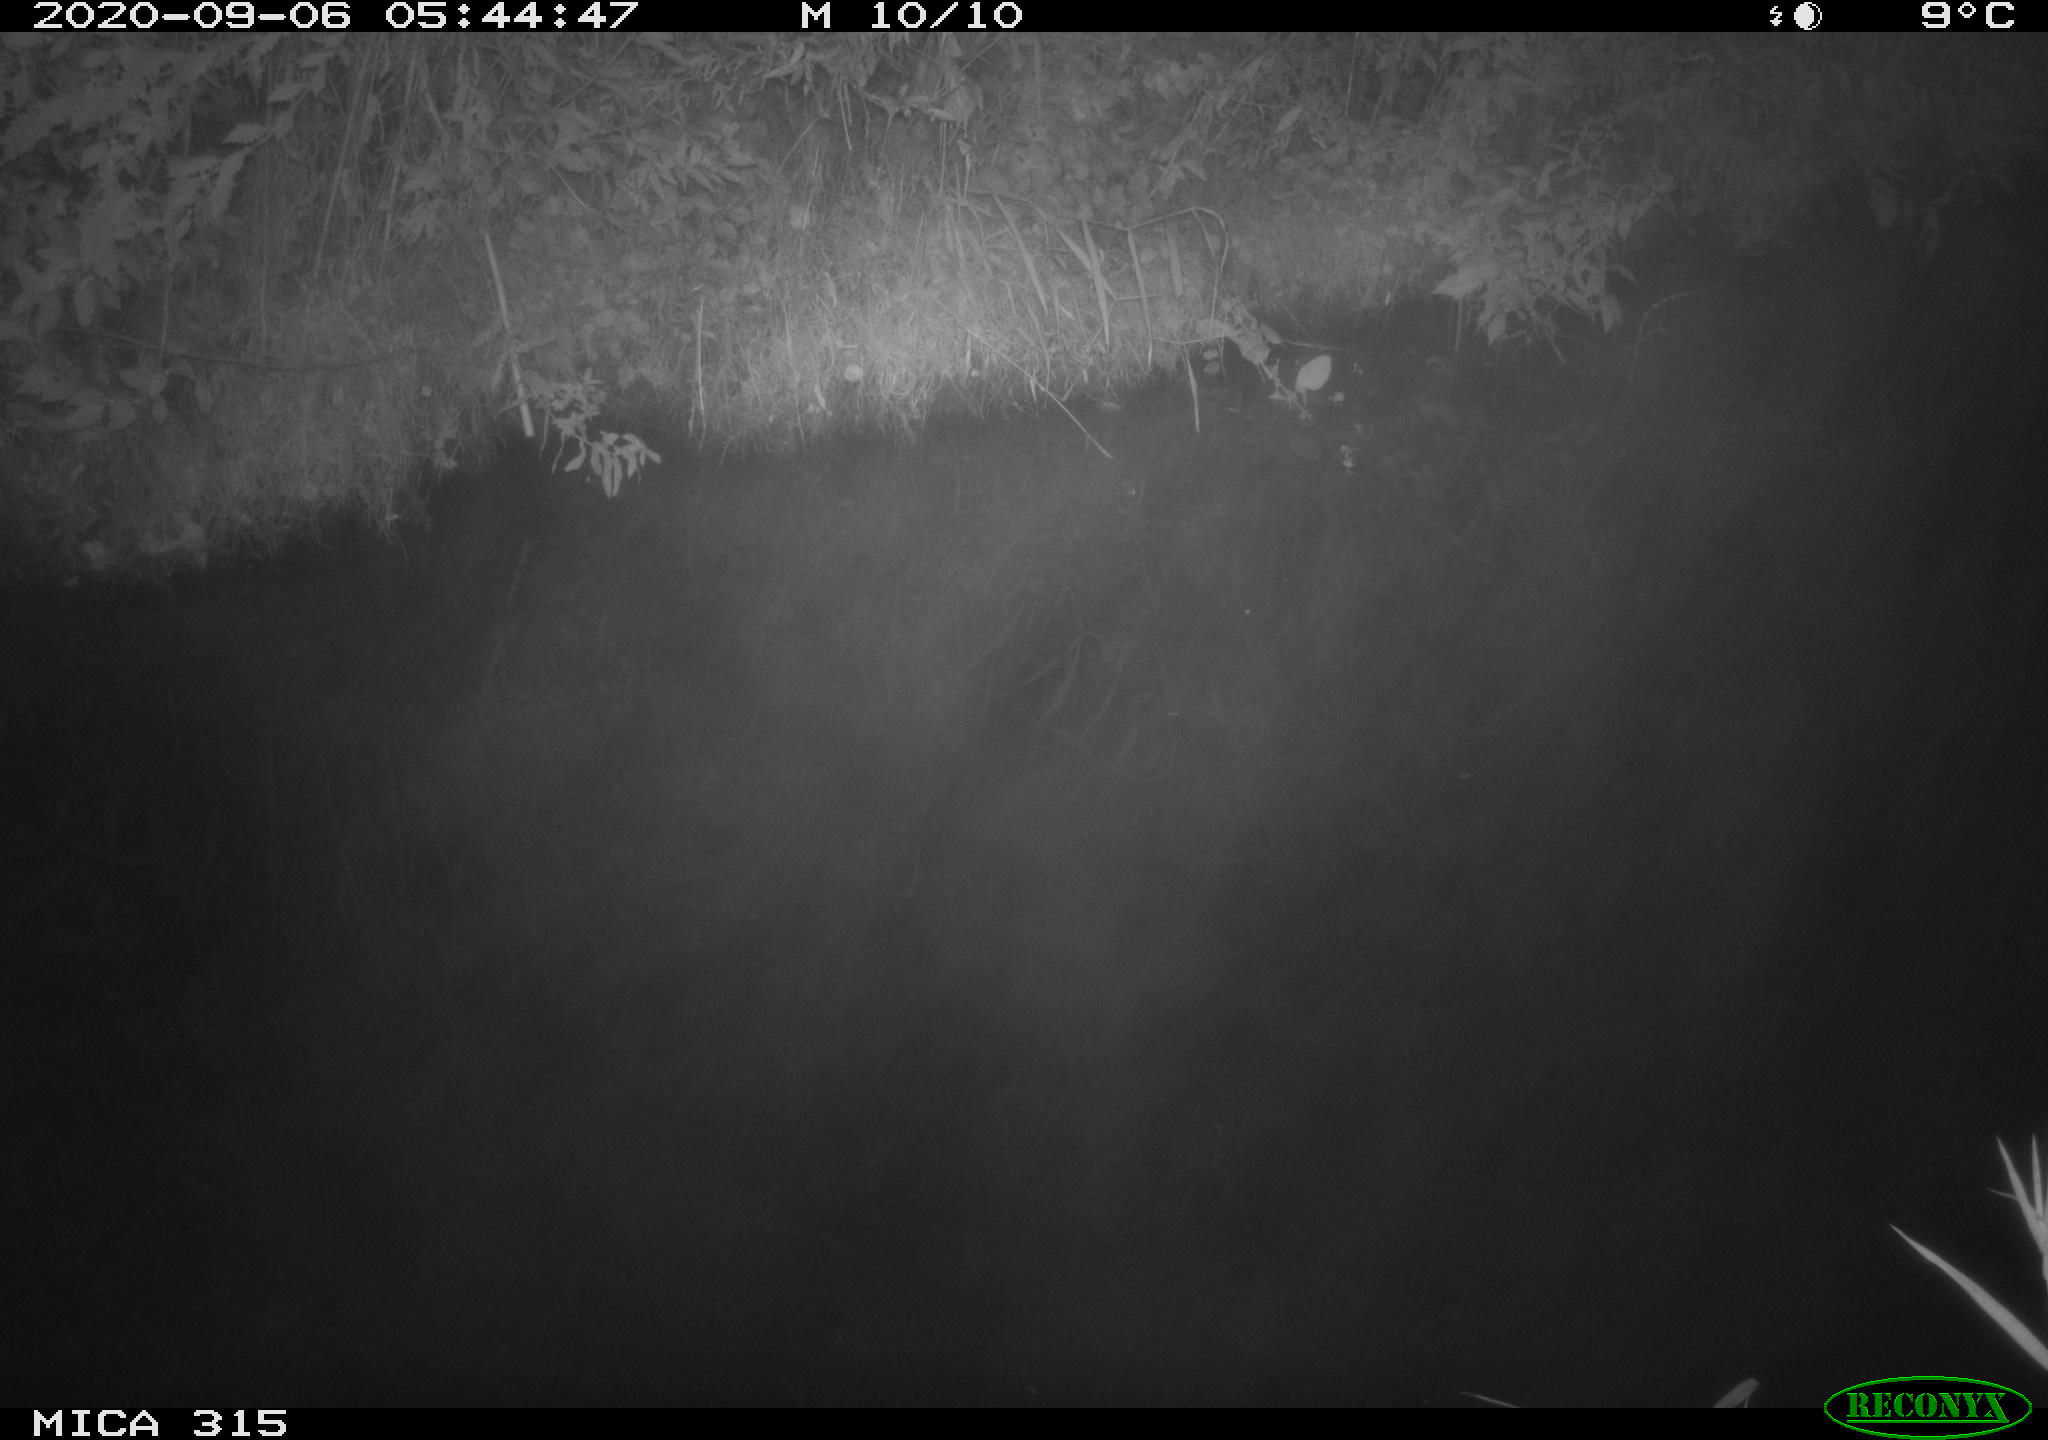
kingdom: Animalia
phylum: Chordata
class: Aves
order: Anseriformes
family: Anatidae
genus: Anas
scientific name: Anas platyrhynchos
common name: Mallard
